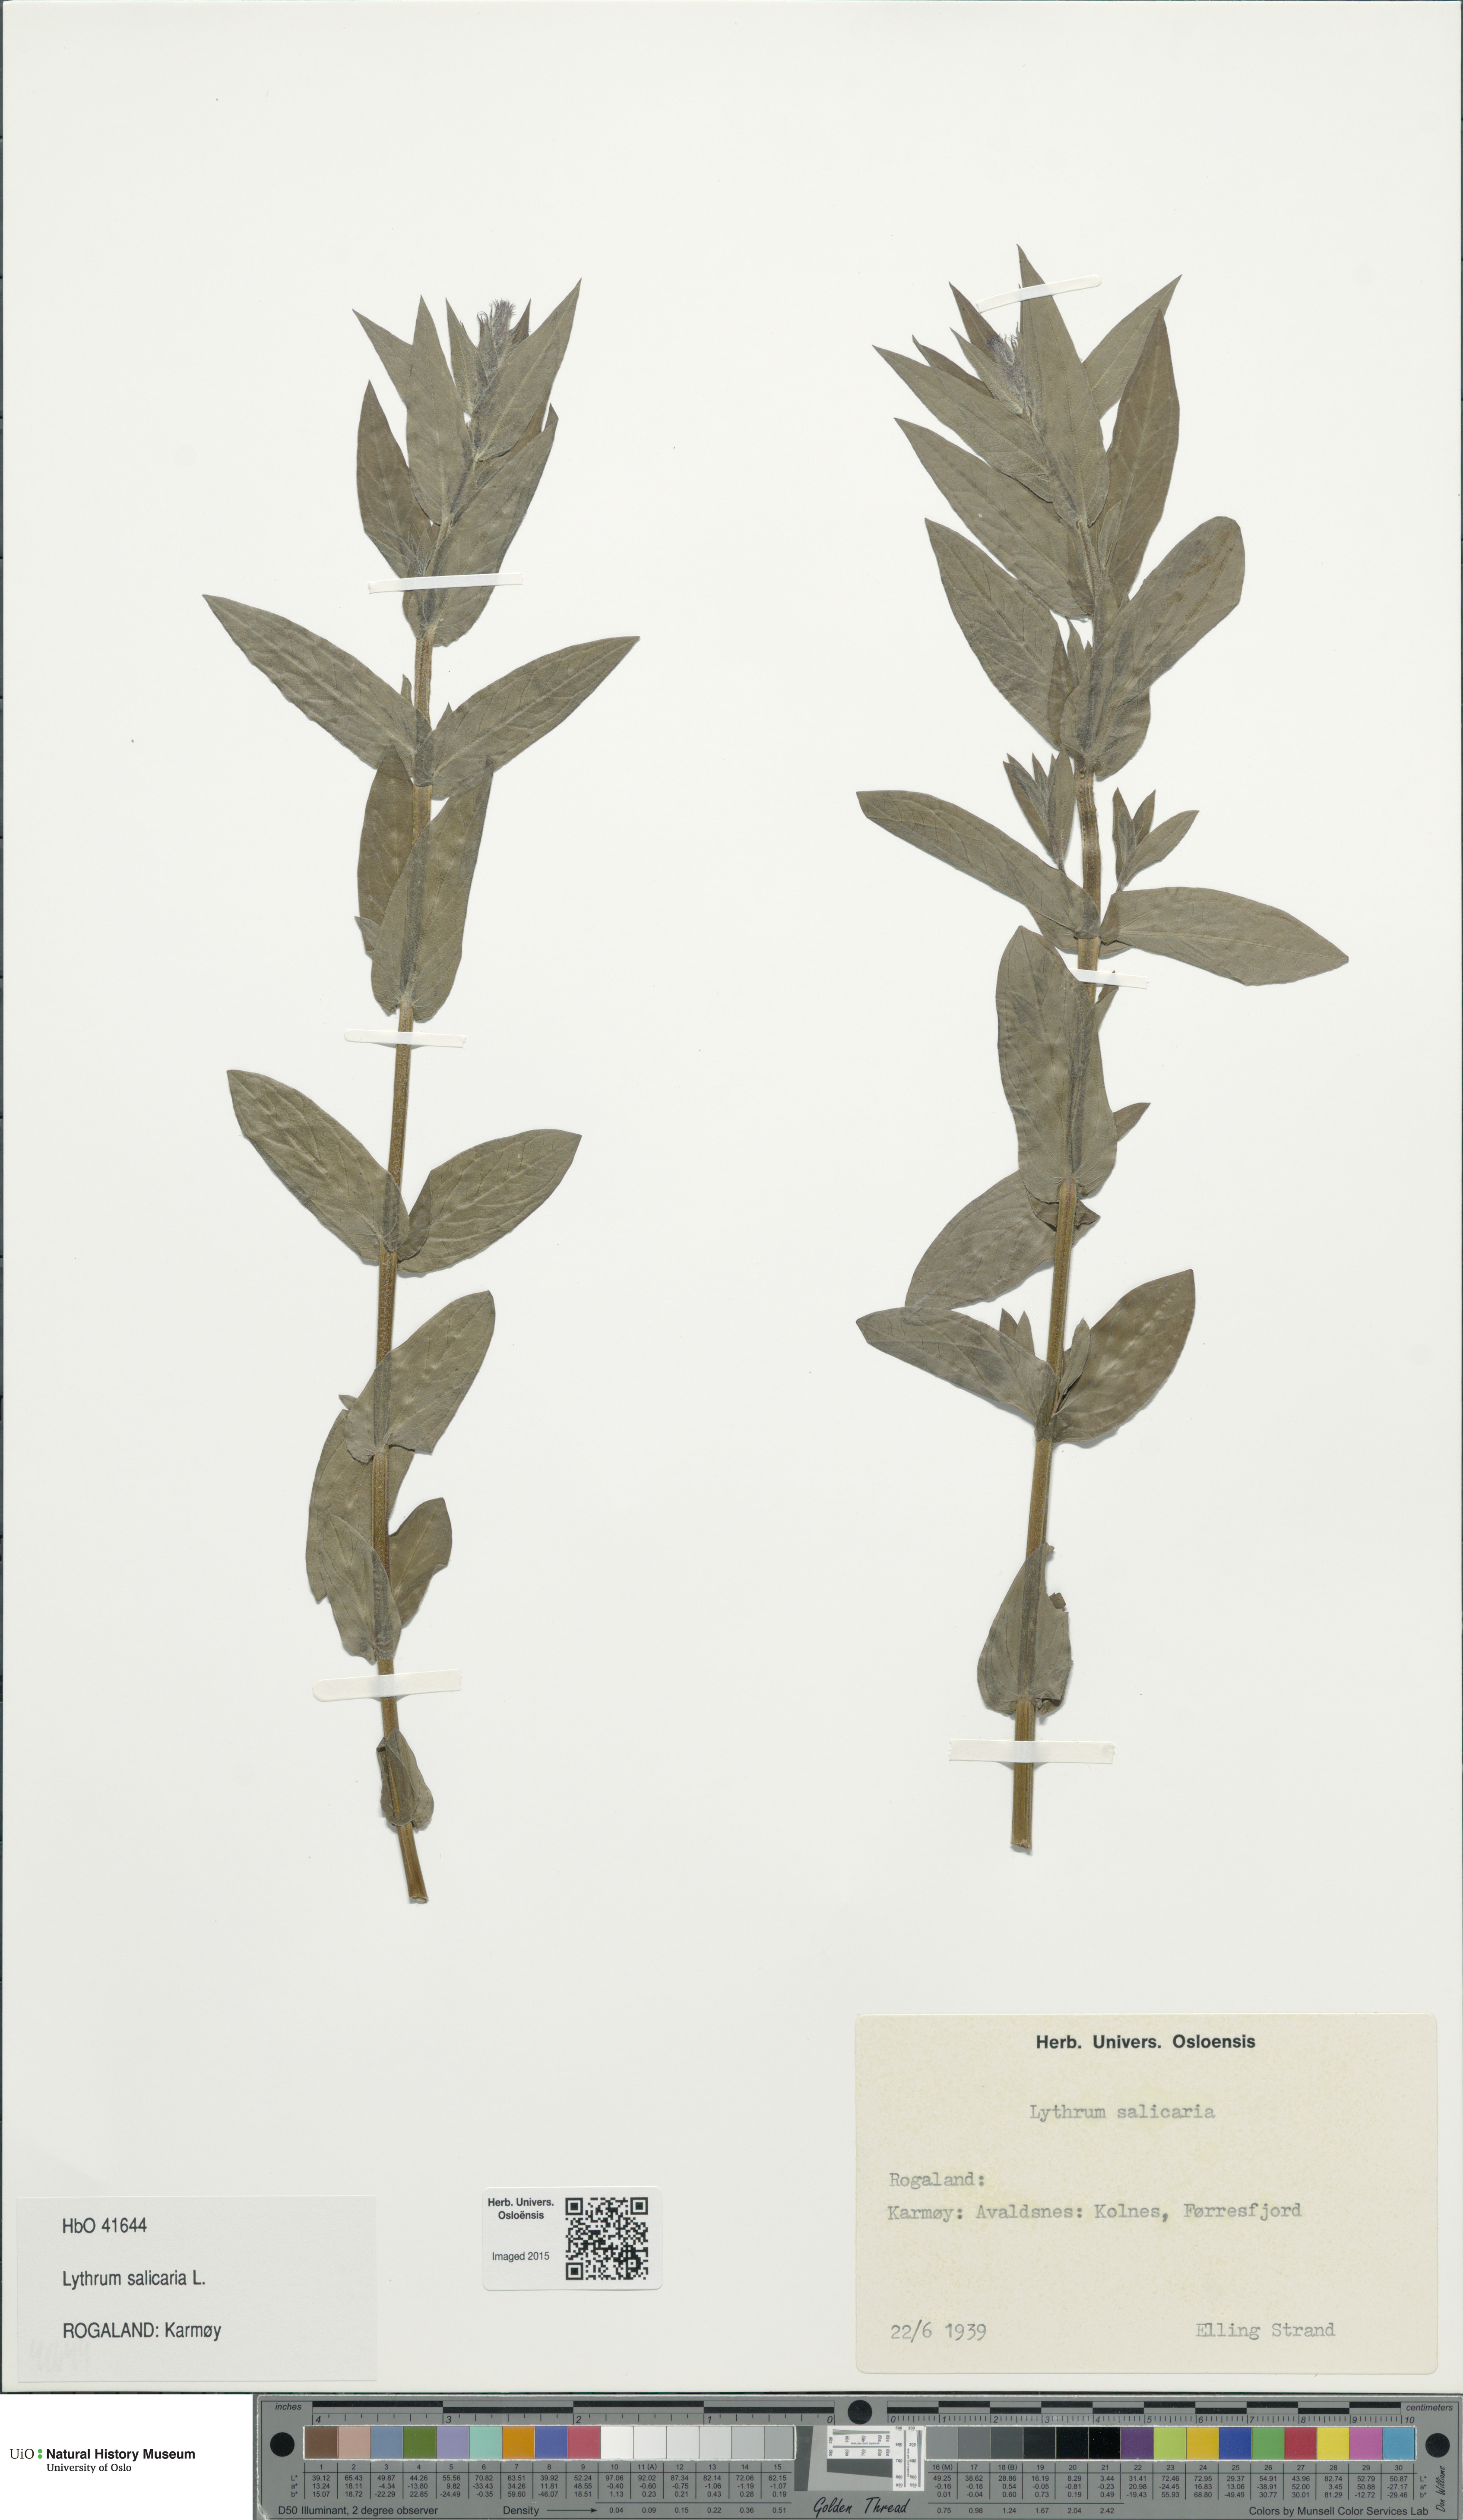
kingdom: Plantae
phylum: Tracheophyta
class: Magnoliopsida
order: Myrtales
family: Lythraceae
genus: Lythrum
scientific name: Lythrum salicaria
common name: Purple loosestrife
